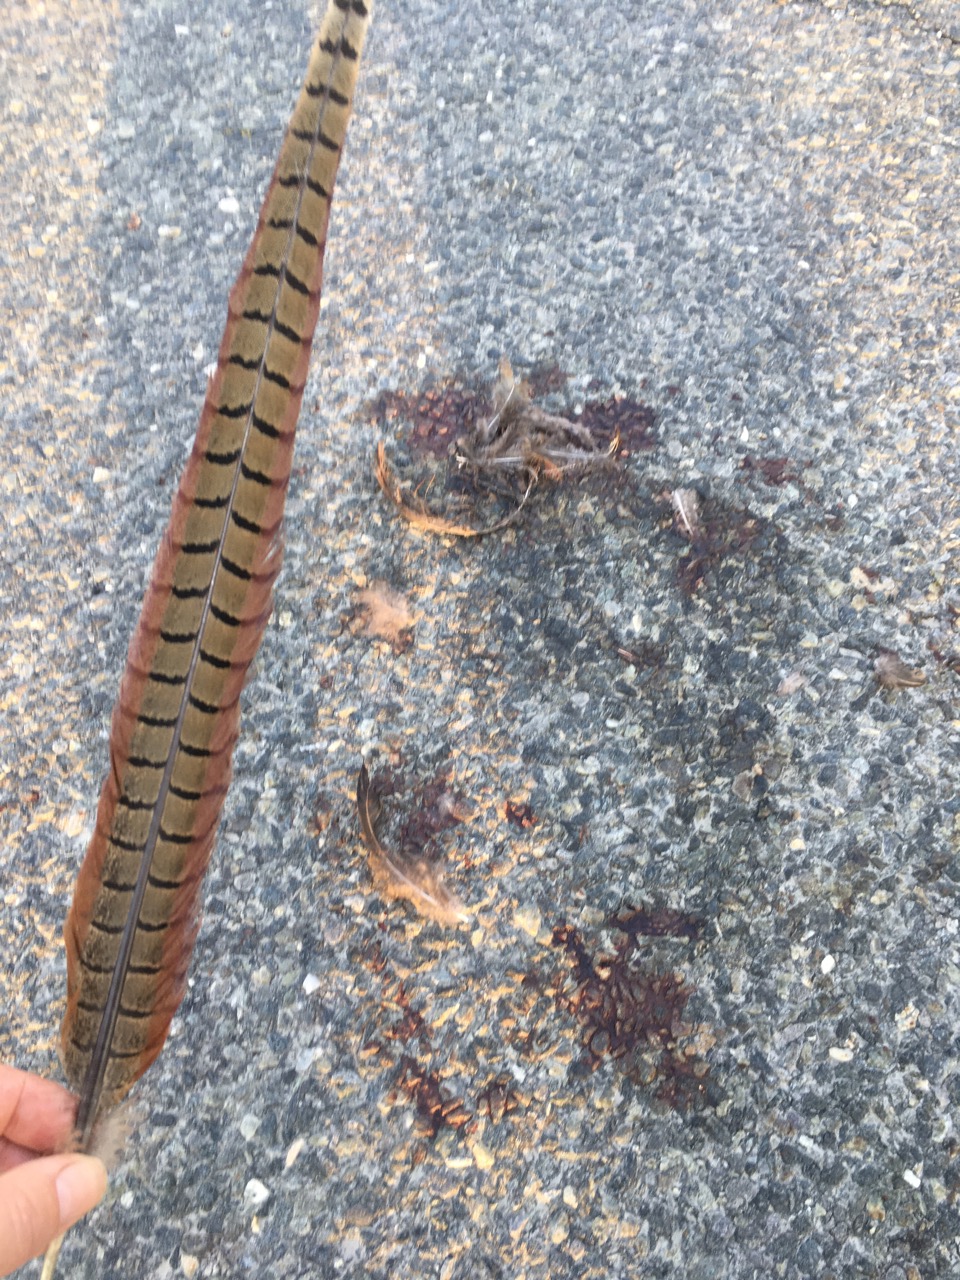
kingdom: Animalia
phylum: Chordata
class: Aves
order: Galliformes
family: Phasianidae
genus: Phasianus
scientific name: Phasianus colchicus
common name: Common pheasant
